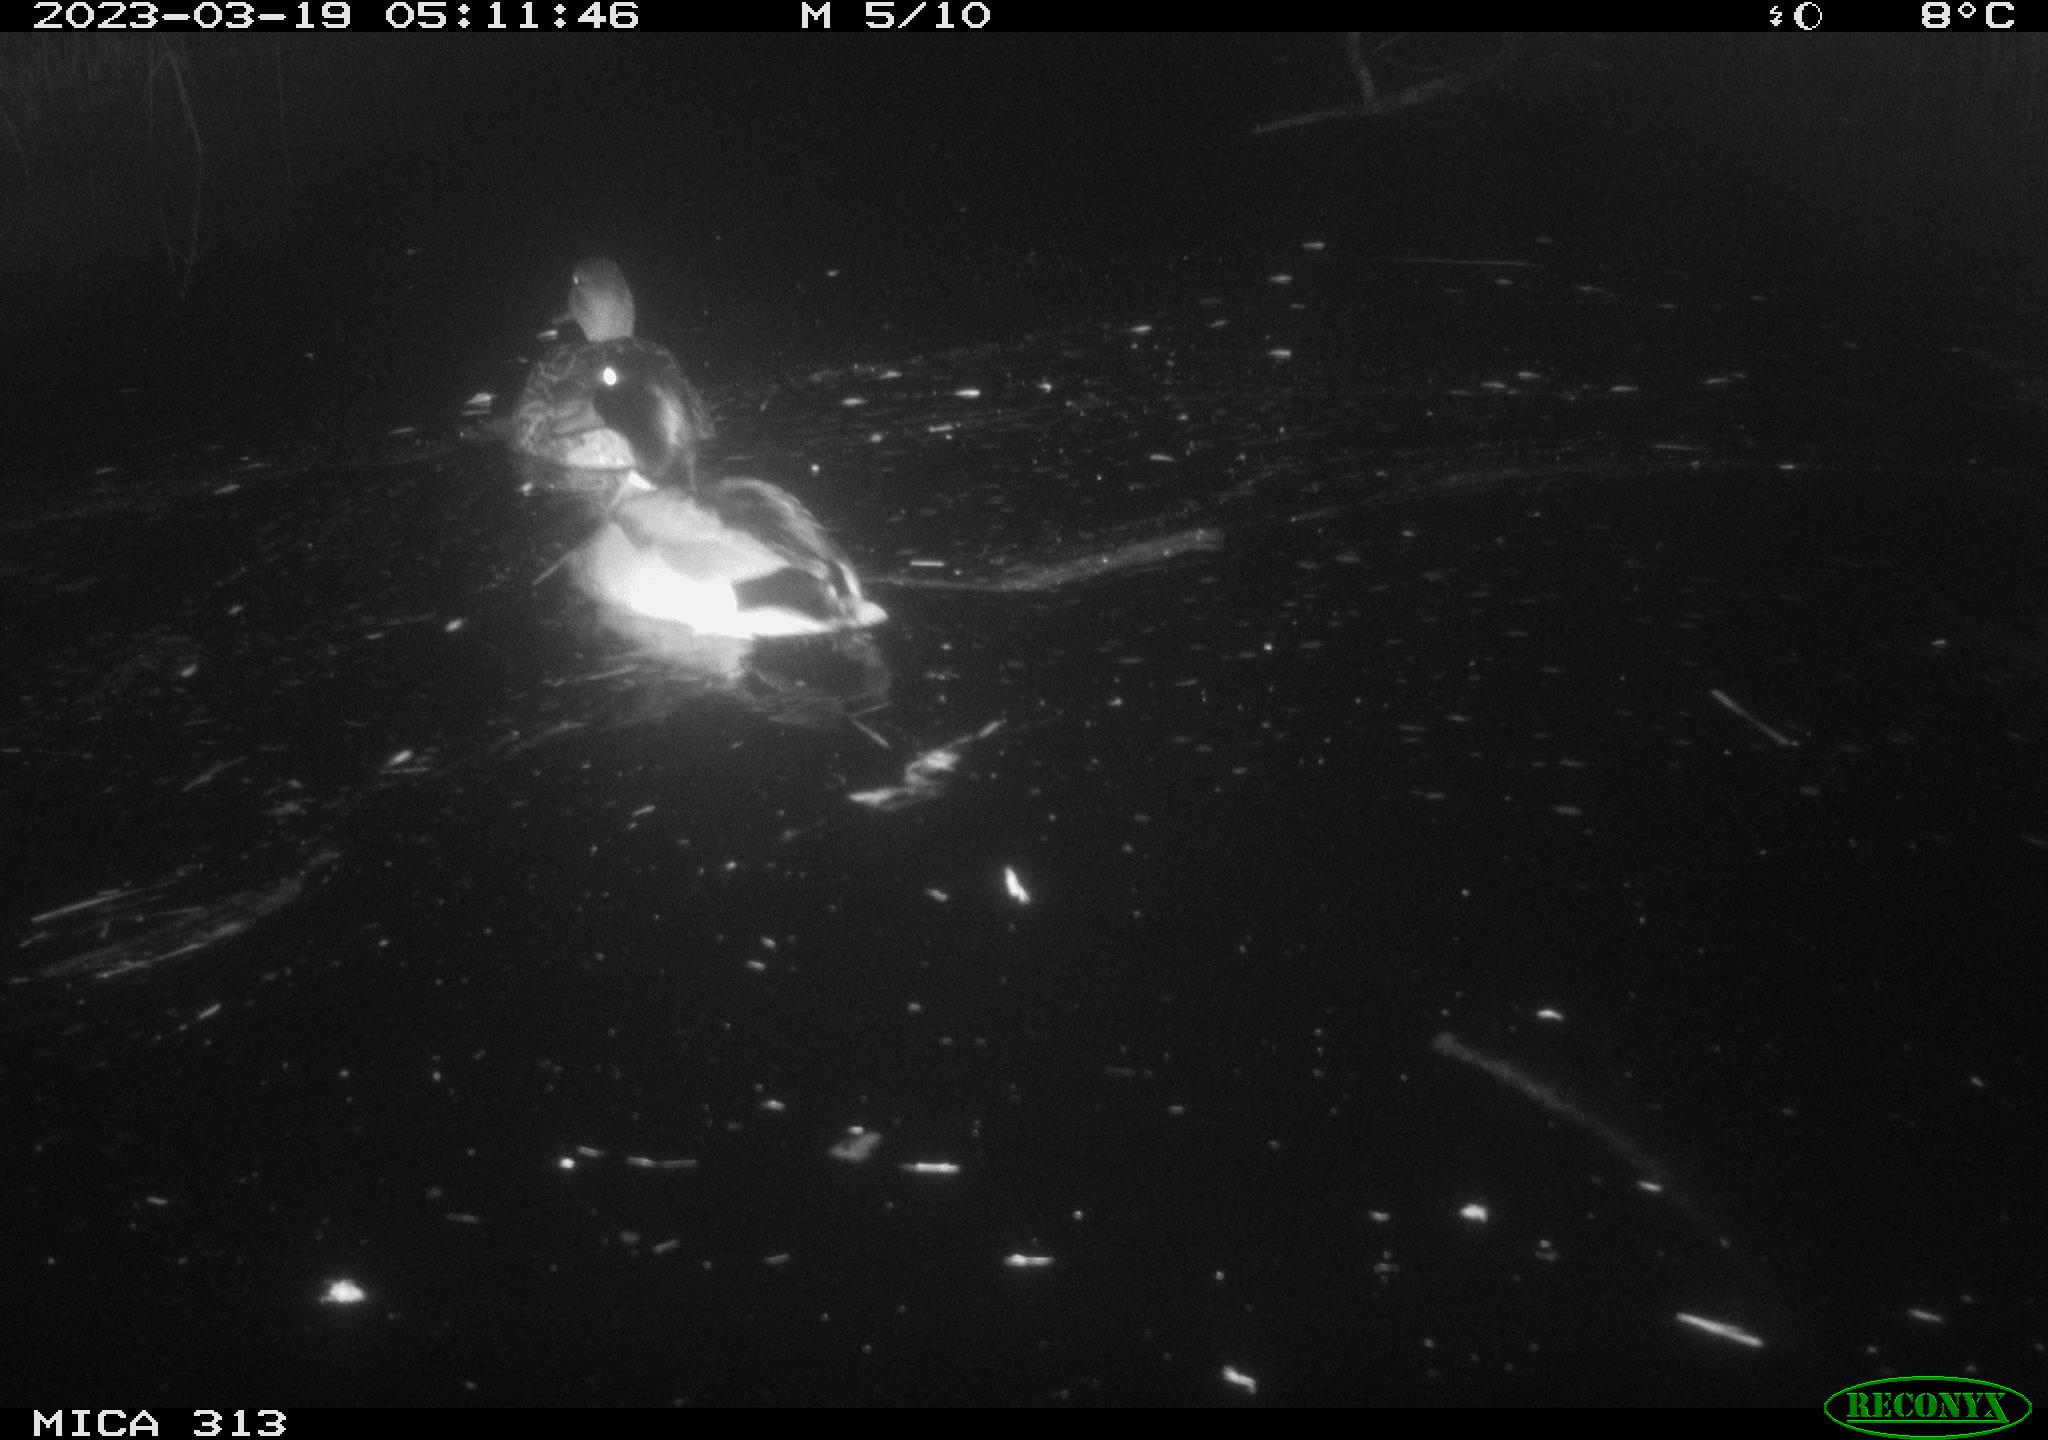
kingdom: Animalia
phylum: Chordata
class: Aves
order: Anseriformes
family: Anatidae
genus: Anas
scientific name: Anas
